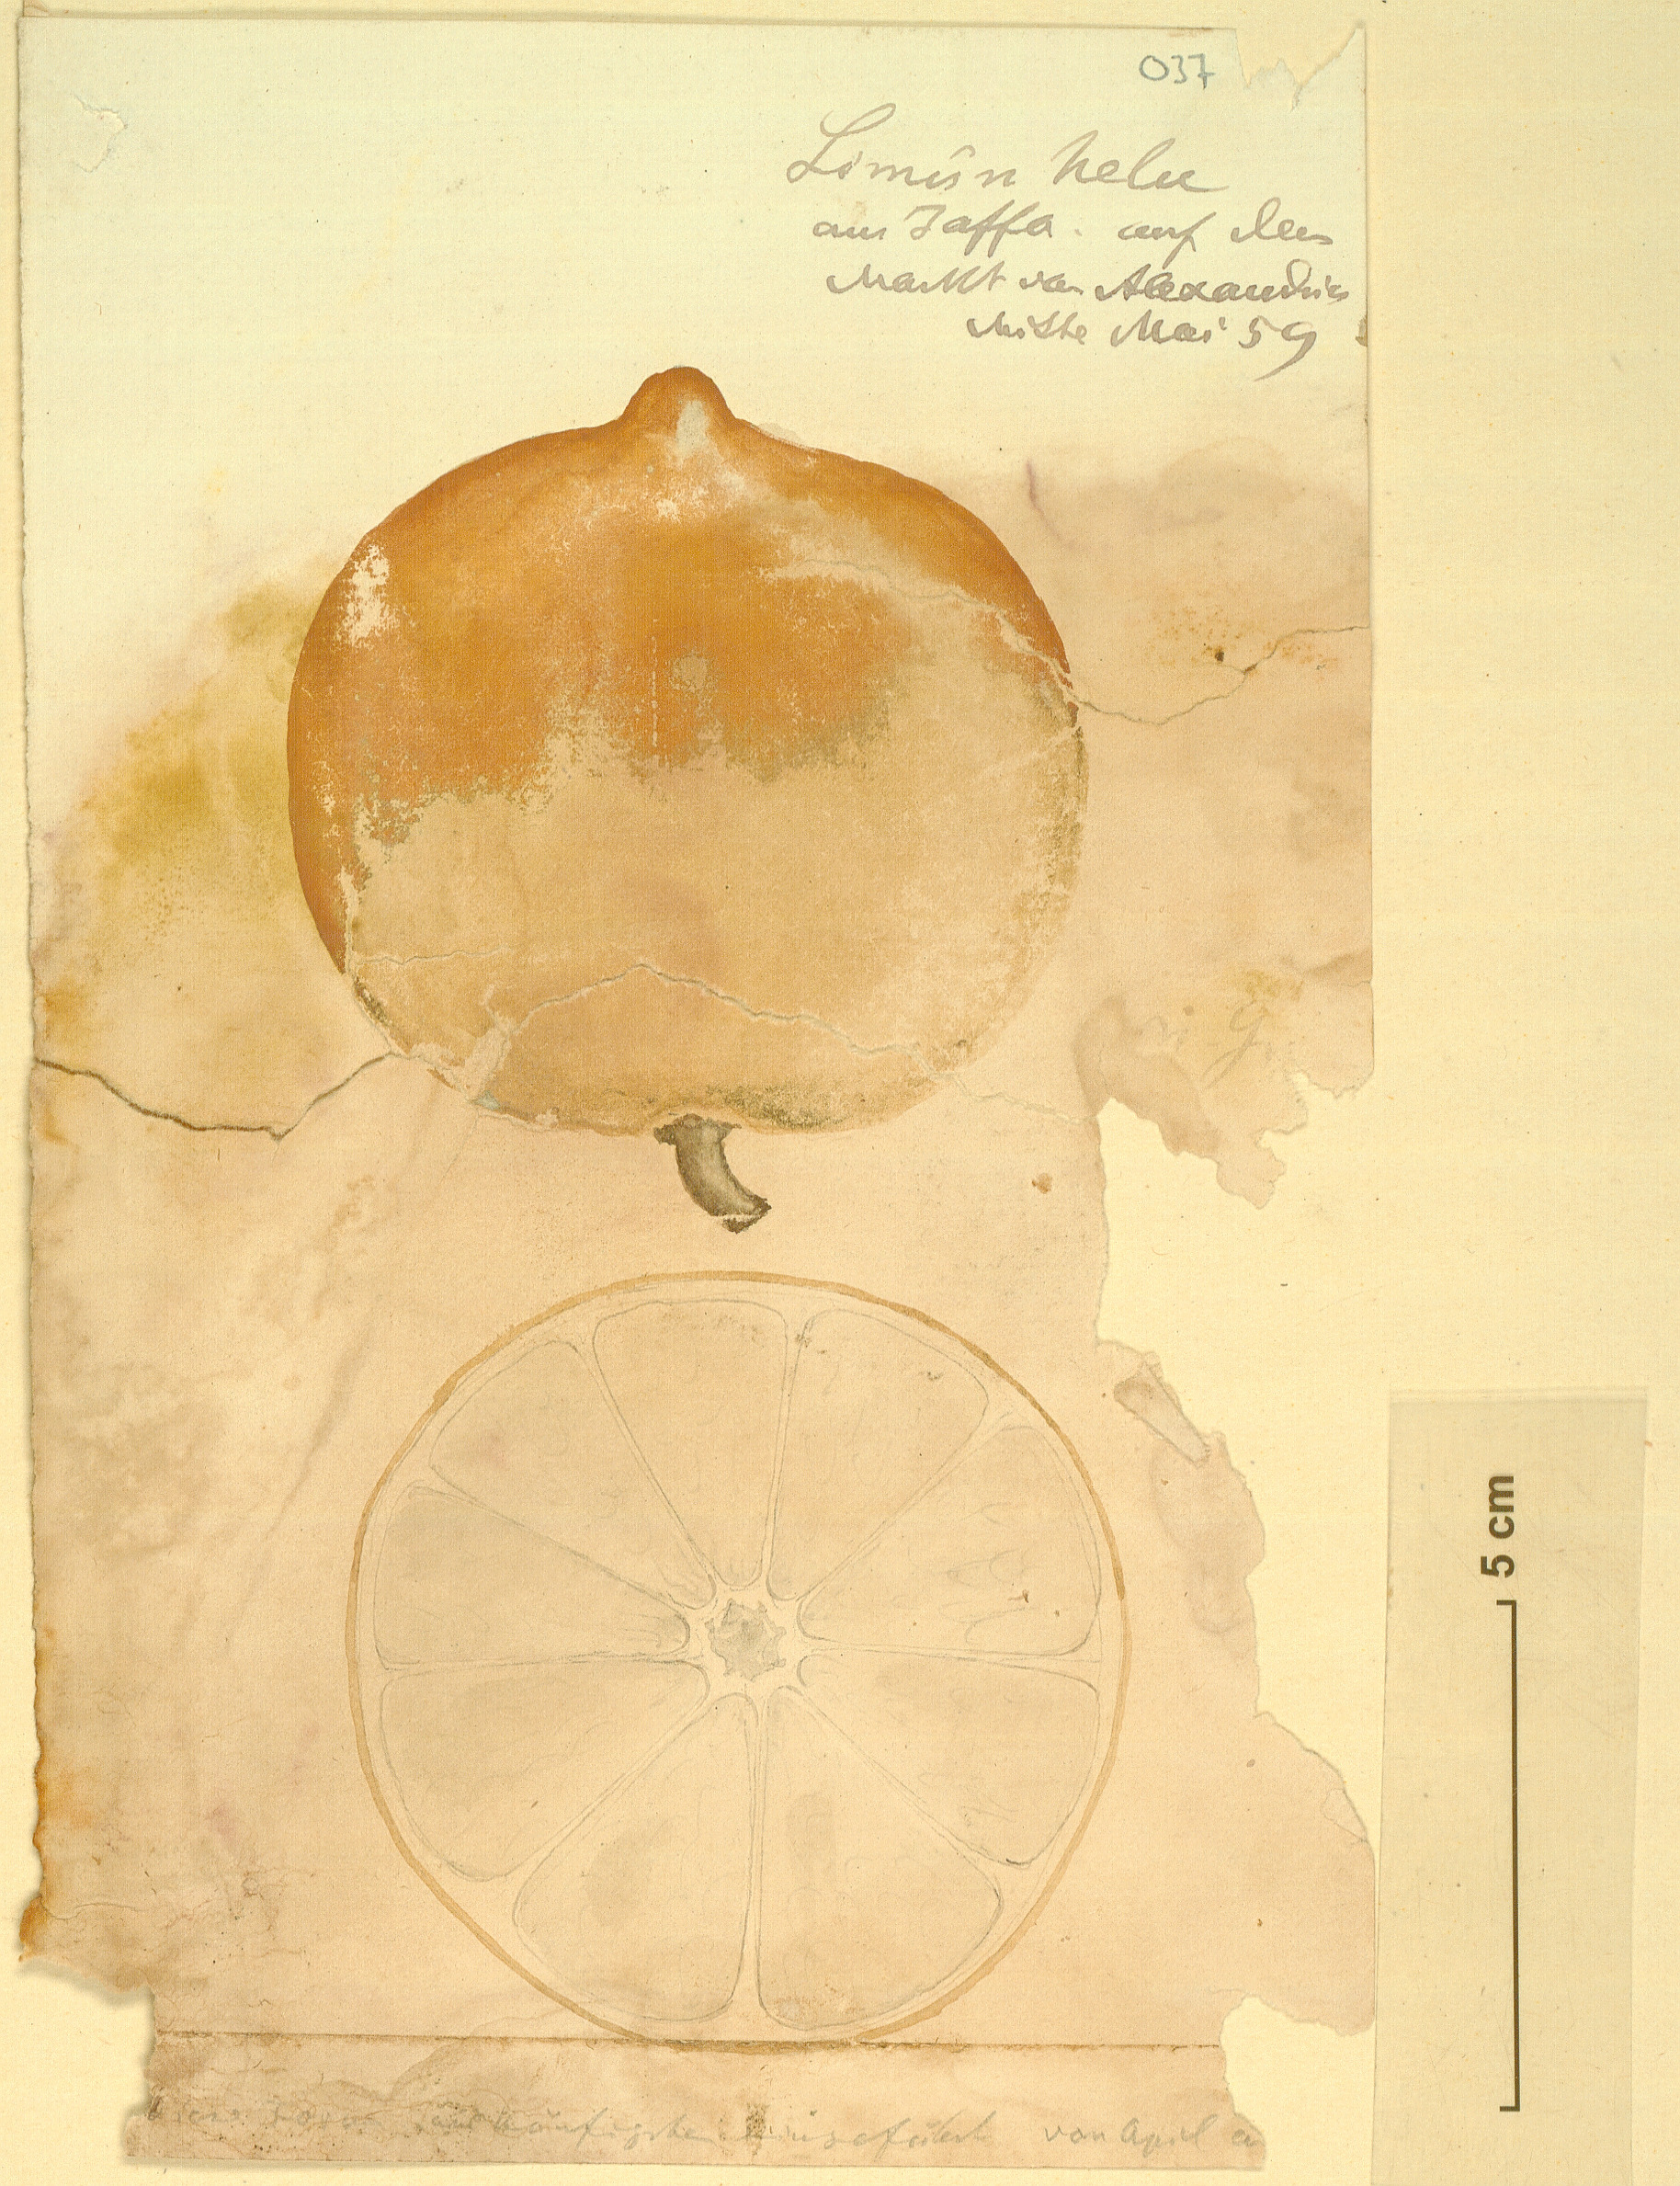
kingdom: Plantae
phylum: Tracheophyta
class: Magnoliopsida
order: Sapindales
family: Rutaceae
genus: Citrus
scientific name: Citrus limon
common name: Lemon
